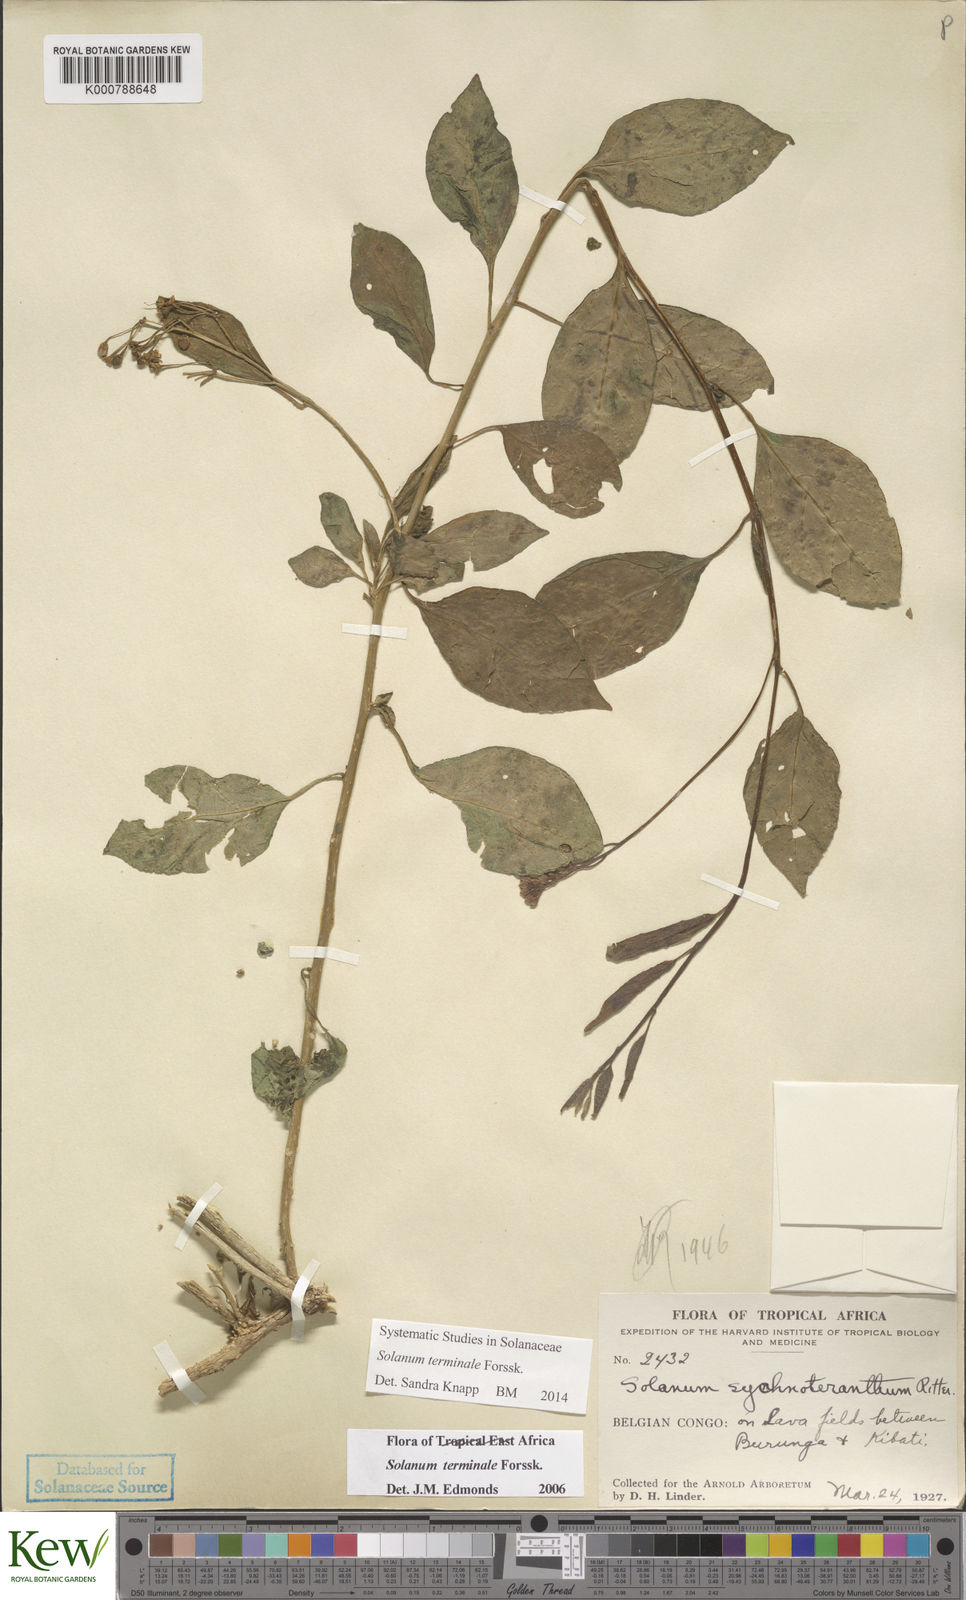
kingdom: Plantae
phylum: Tracheophyta
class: Magnoliopsida
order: Solanales
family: Solanaceae
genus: Solanum
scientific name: Solanum terminale
